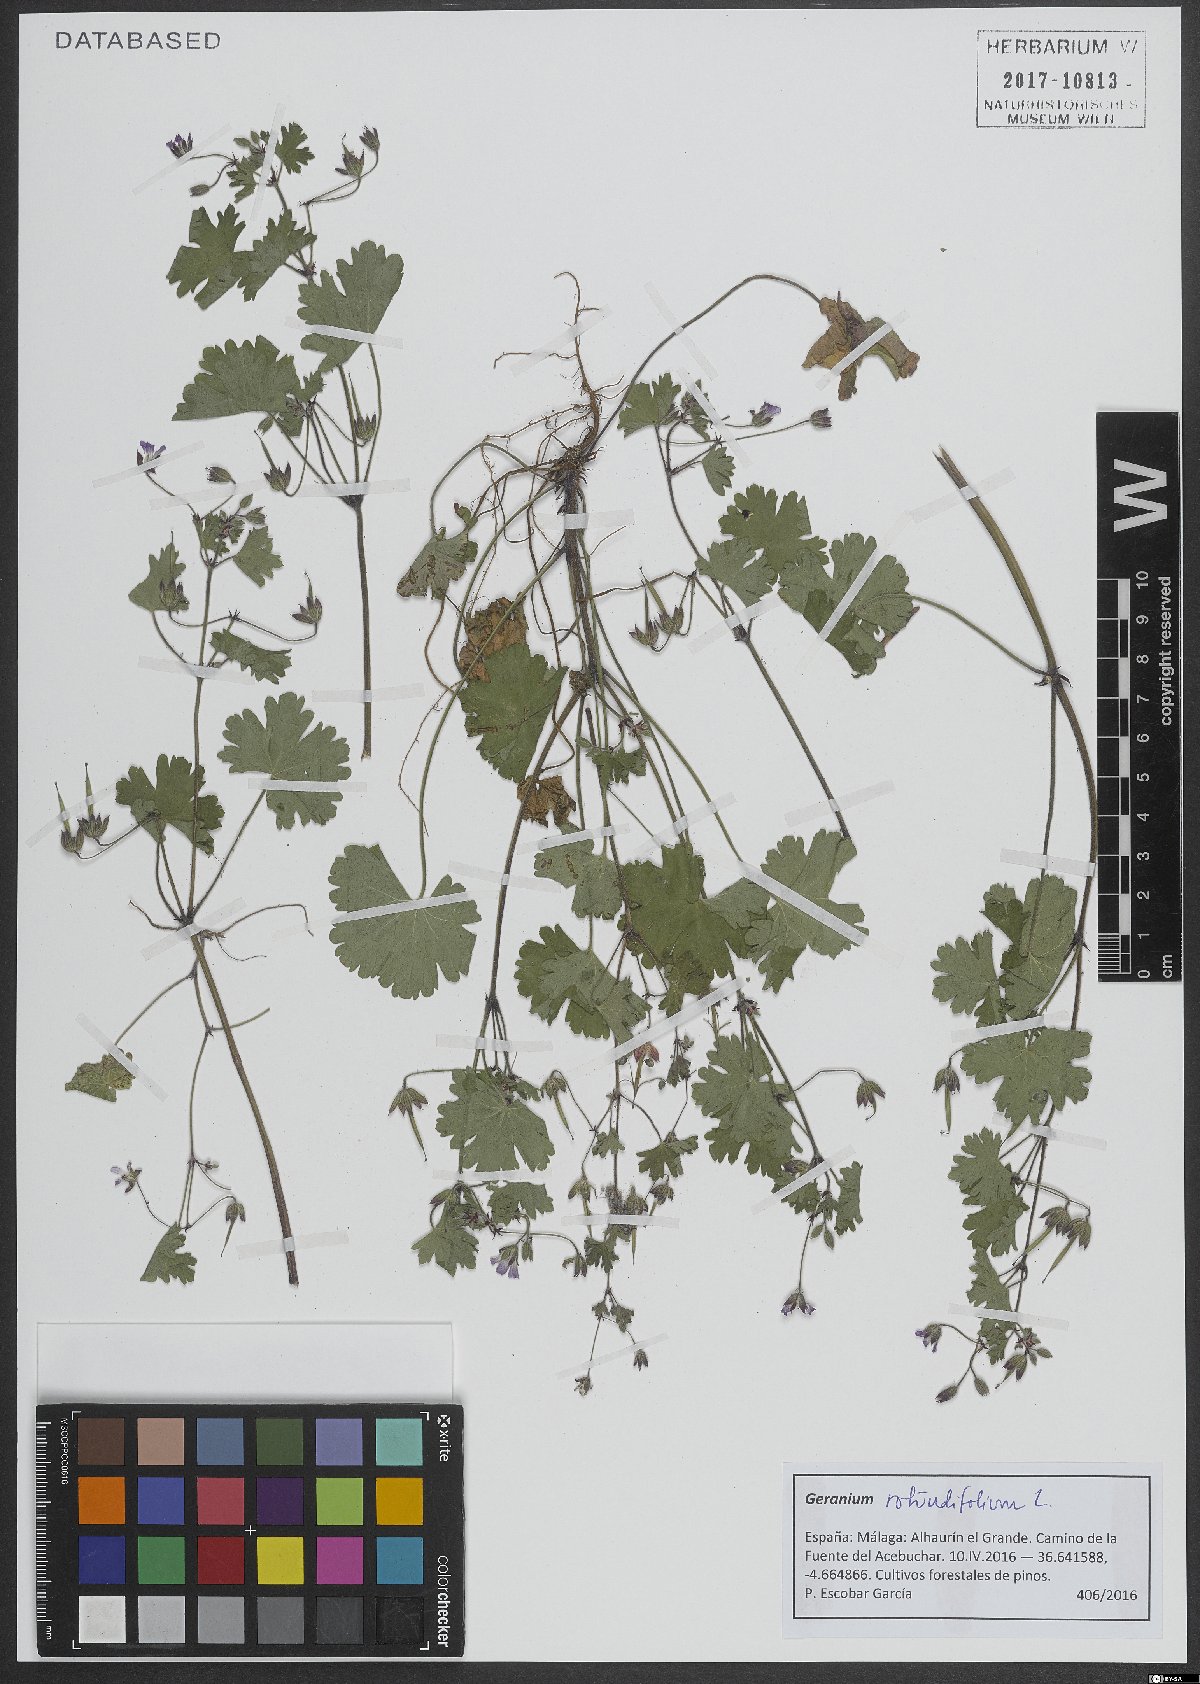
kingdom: Plantae
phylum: Tracheophyta
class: Magnoliopsida
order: Geraniales
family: Geraniaceae
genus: Geranium
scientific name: Geranium rotundifolium
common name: Round-leaved crane's-bill
